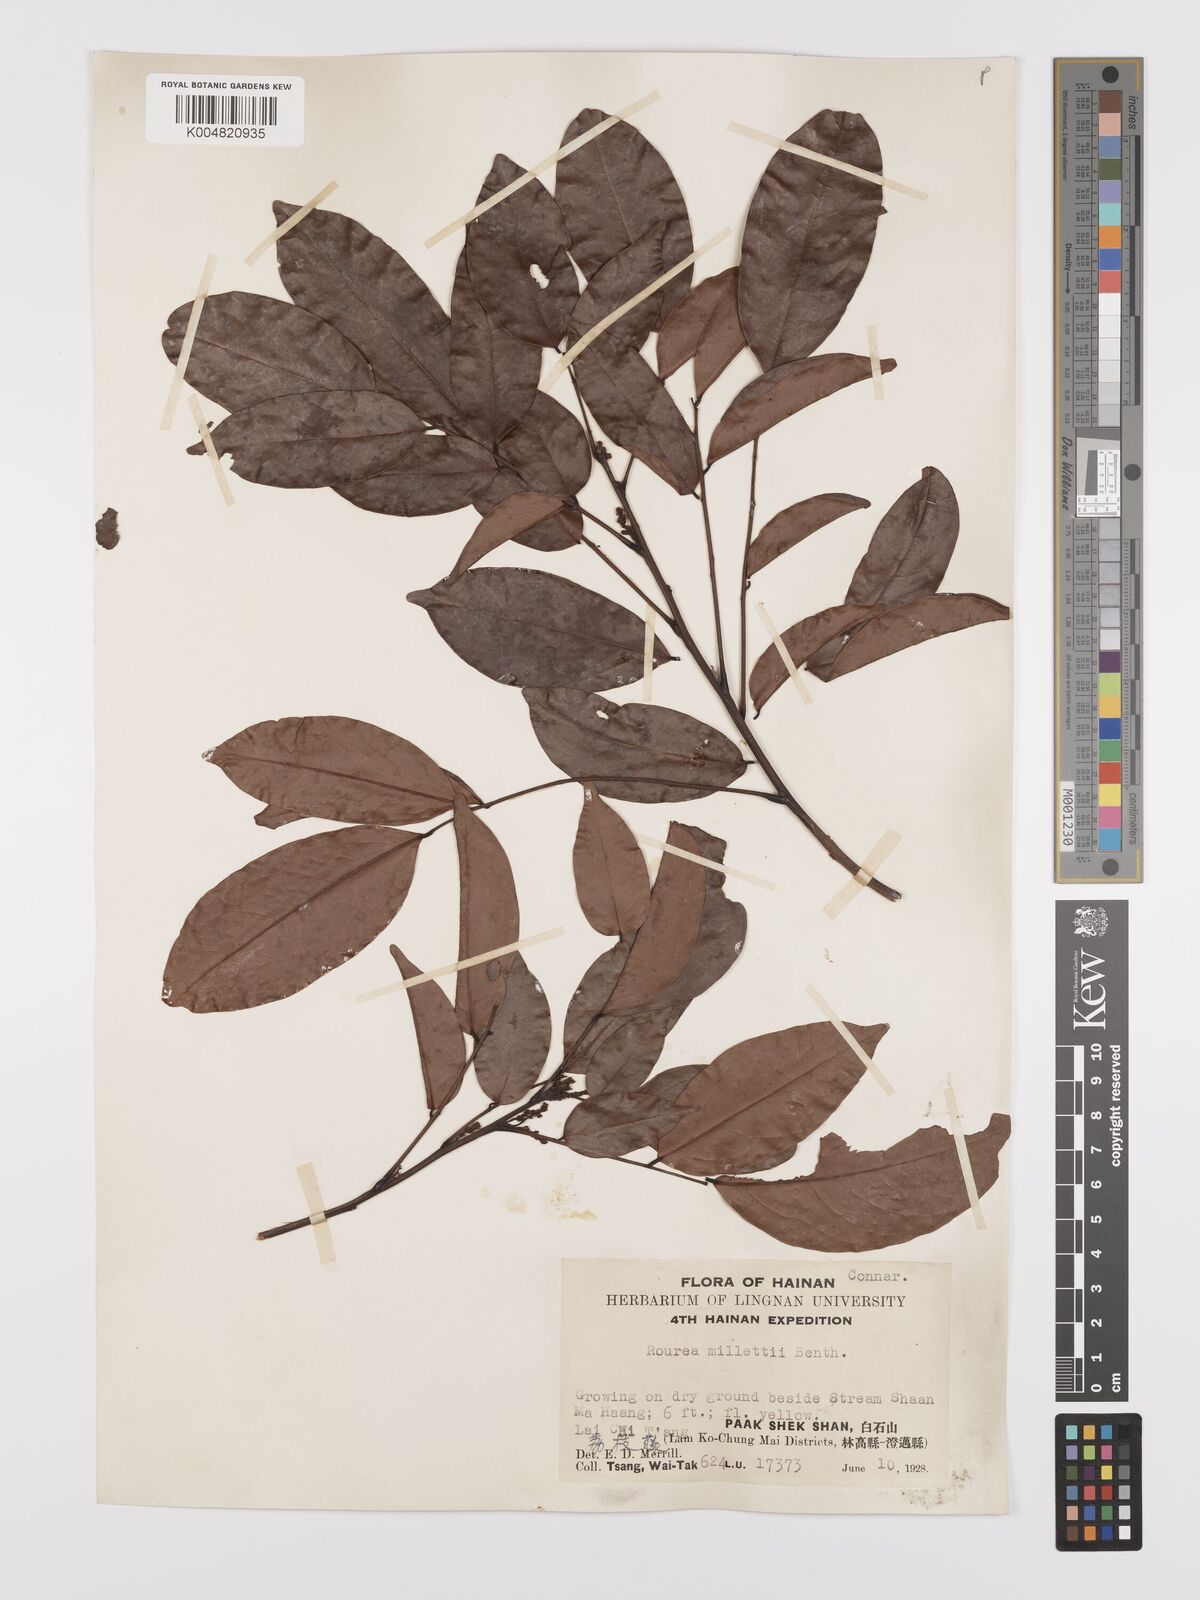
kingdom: Plantae
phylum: Tracheophyta
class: Magnoliopsida
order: Oxalidales
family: Connaraceae
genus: Rourea
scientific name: Rourea
